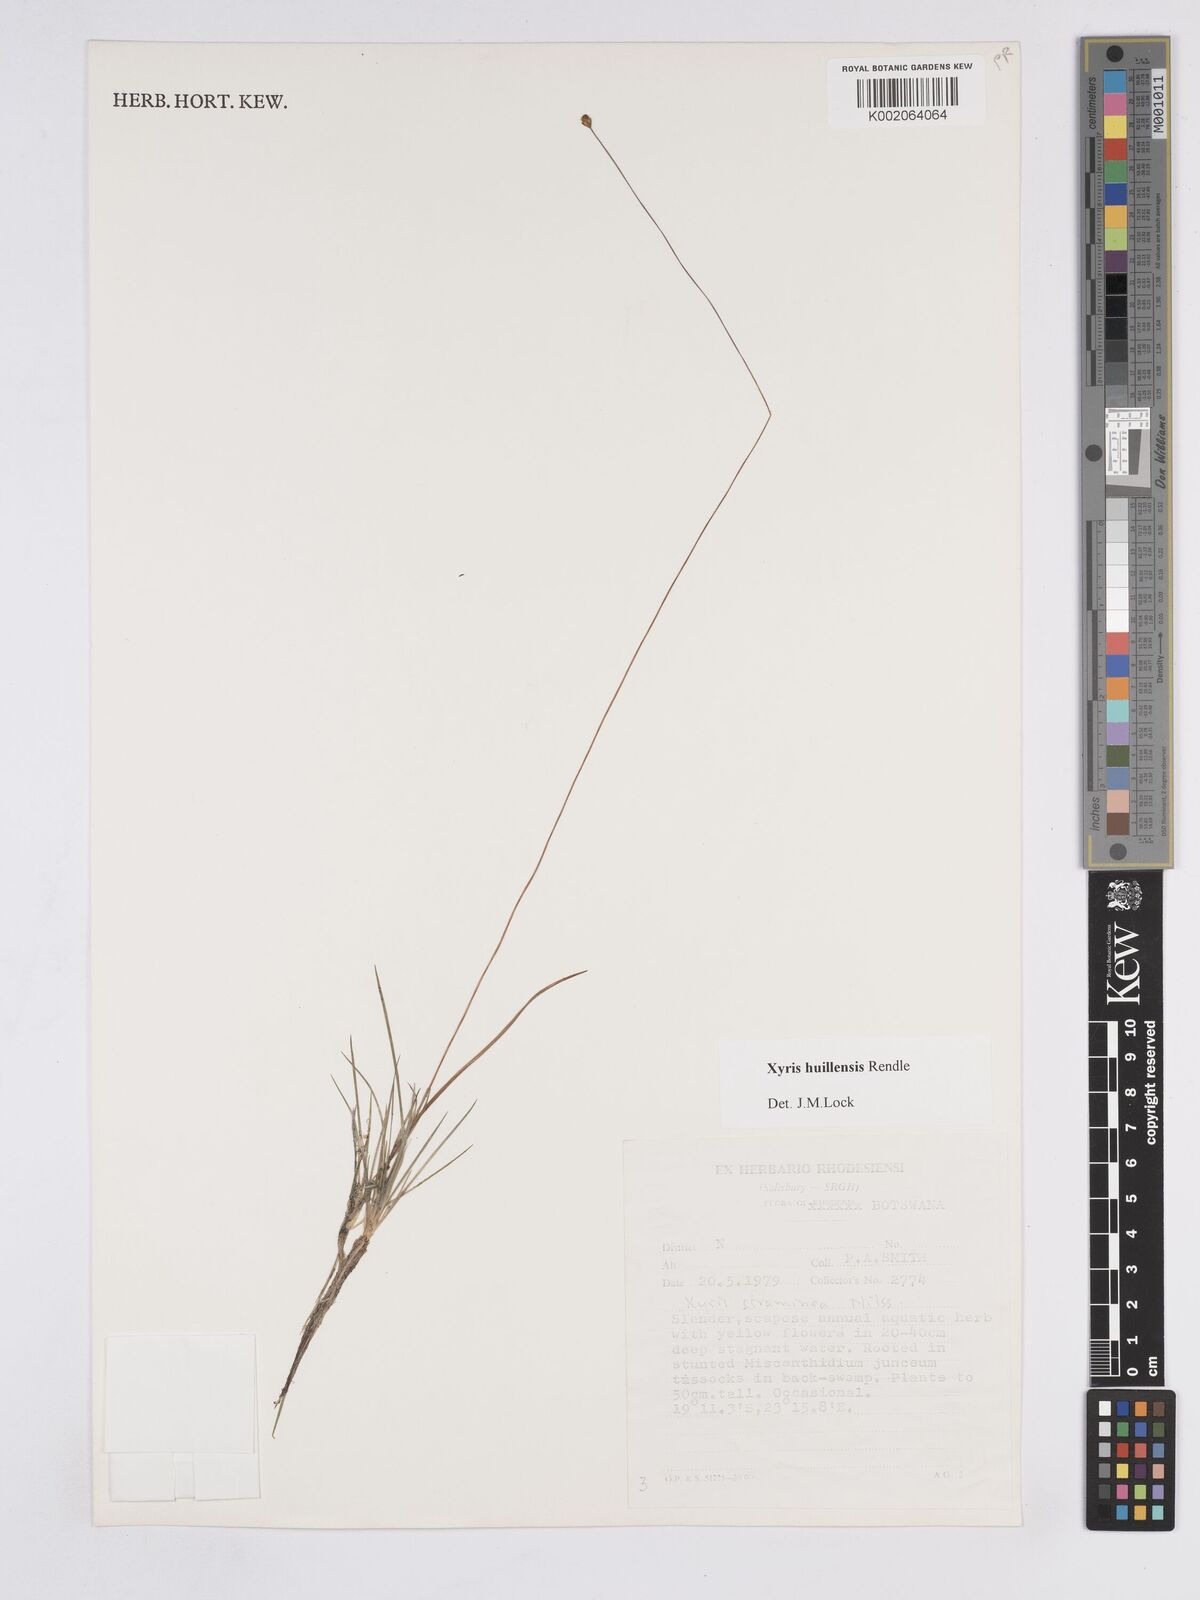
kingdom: Plantae
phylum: Tracheophyta
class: Liliopsida
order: Poales
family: Xyridaceae
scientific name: Xyridaceae
